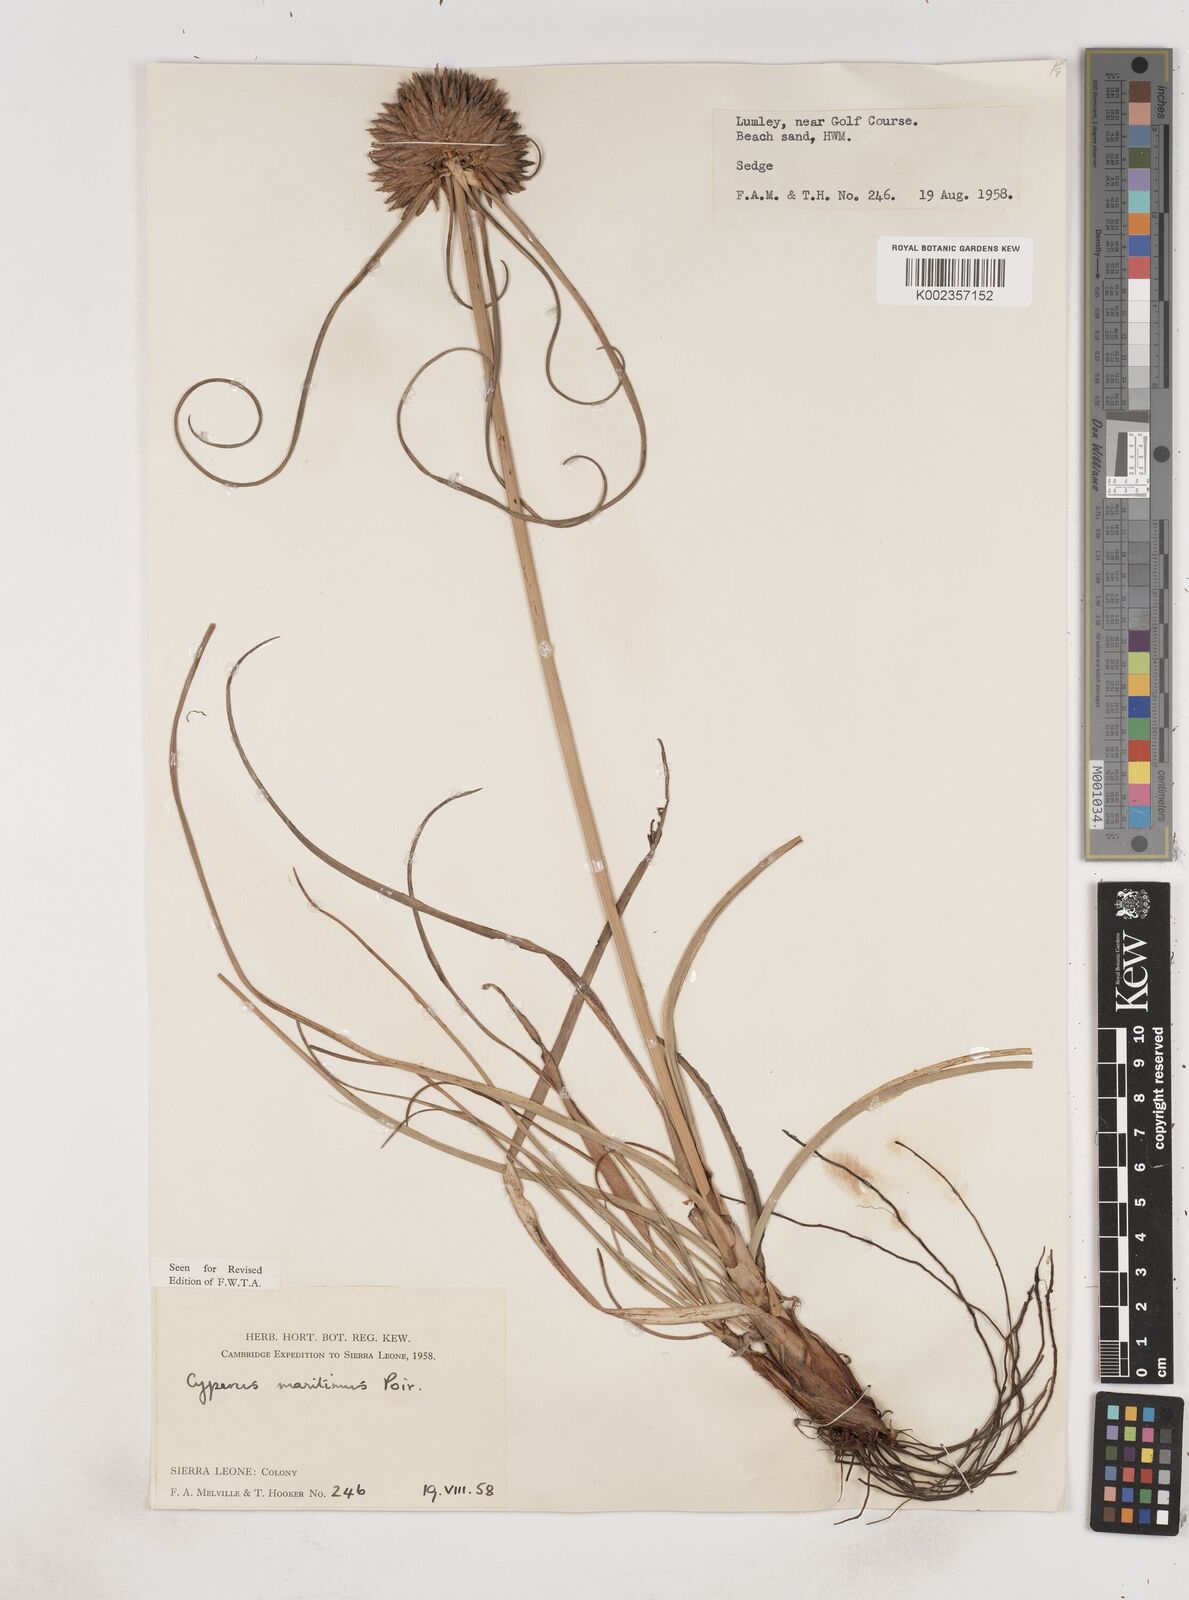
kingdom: Plantae
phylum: Tracheophyta
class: Liliopsida
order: Poales
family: Cyperaceae
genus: Cyperus
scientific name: Cyperus crassipes
